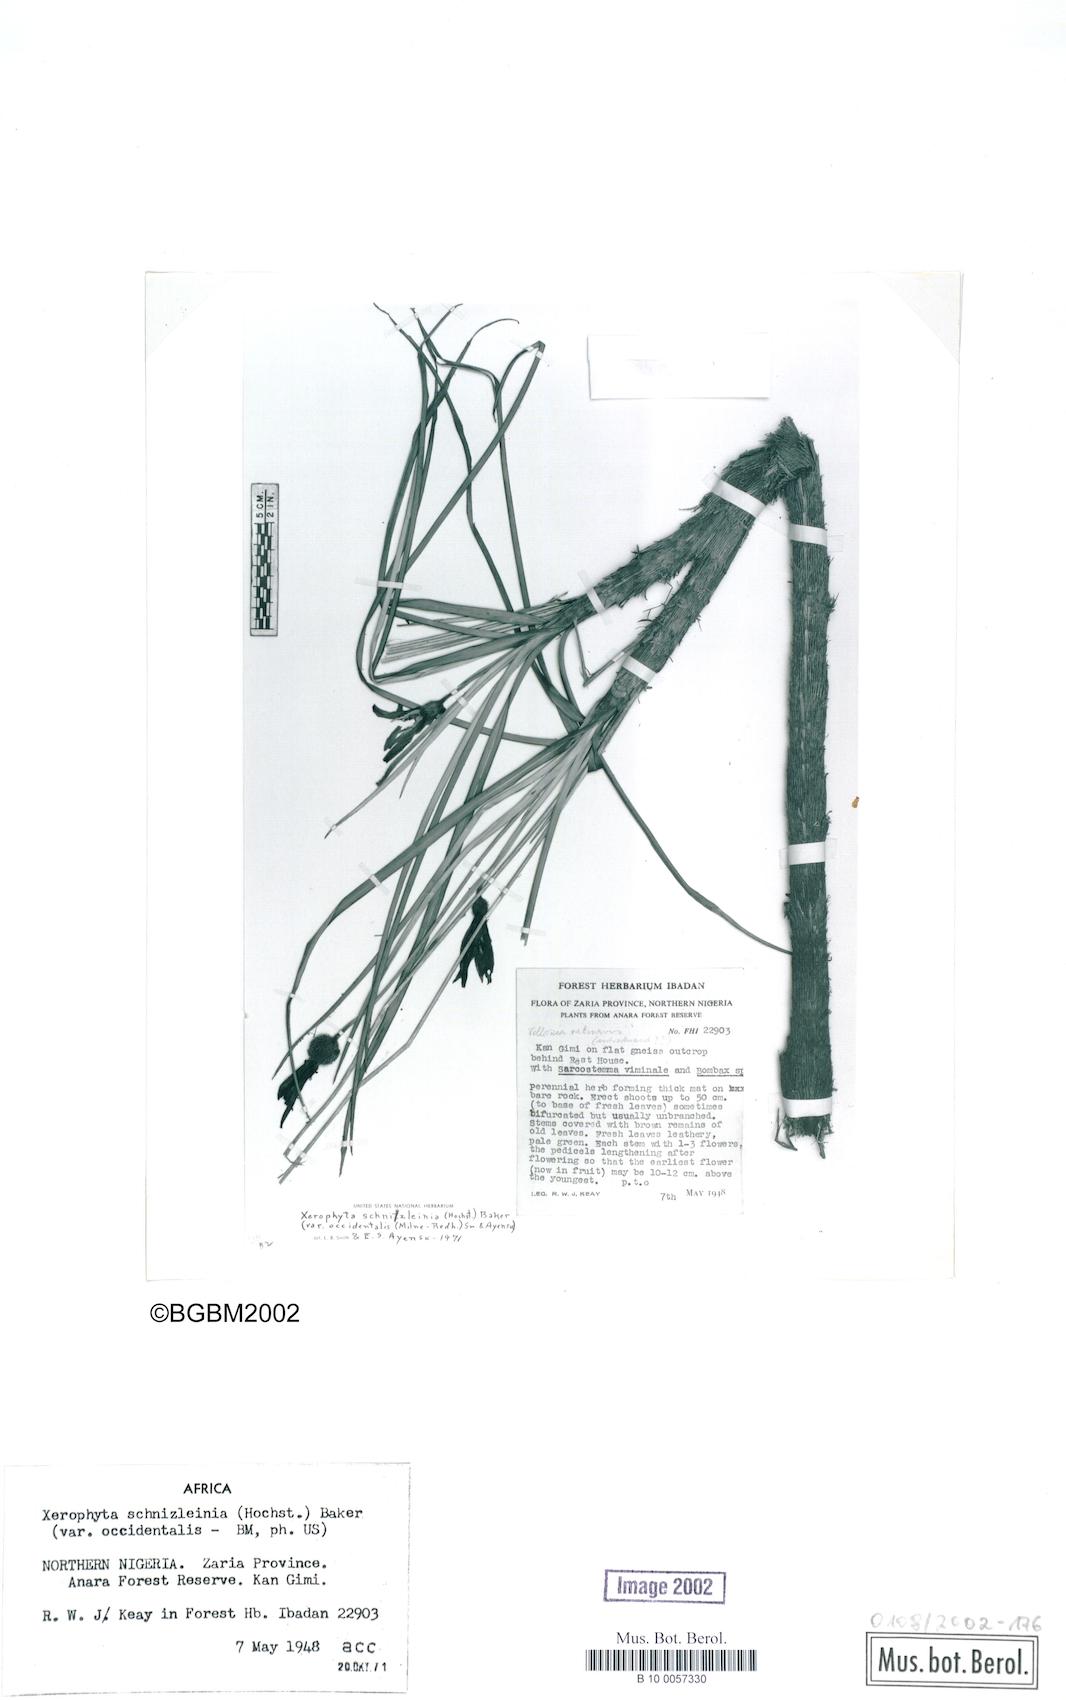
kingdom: Plantae
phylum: Tracheophyta
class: Liliopsida
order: Pandanales
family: Velloziaceae
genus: Xerophyta
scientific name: Xerophyta schnizleinia
